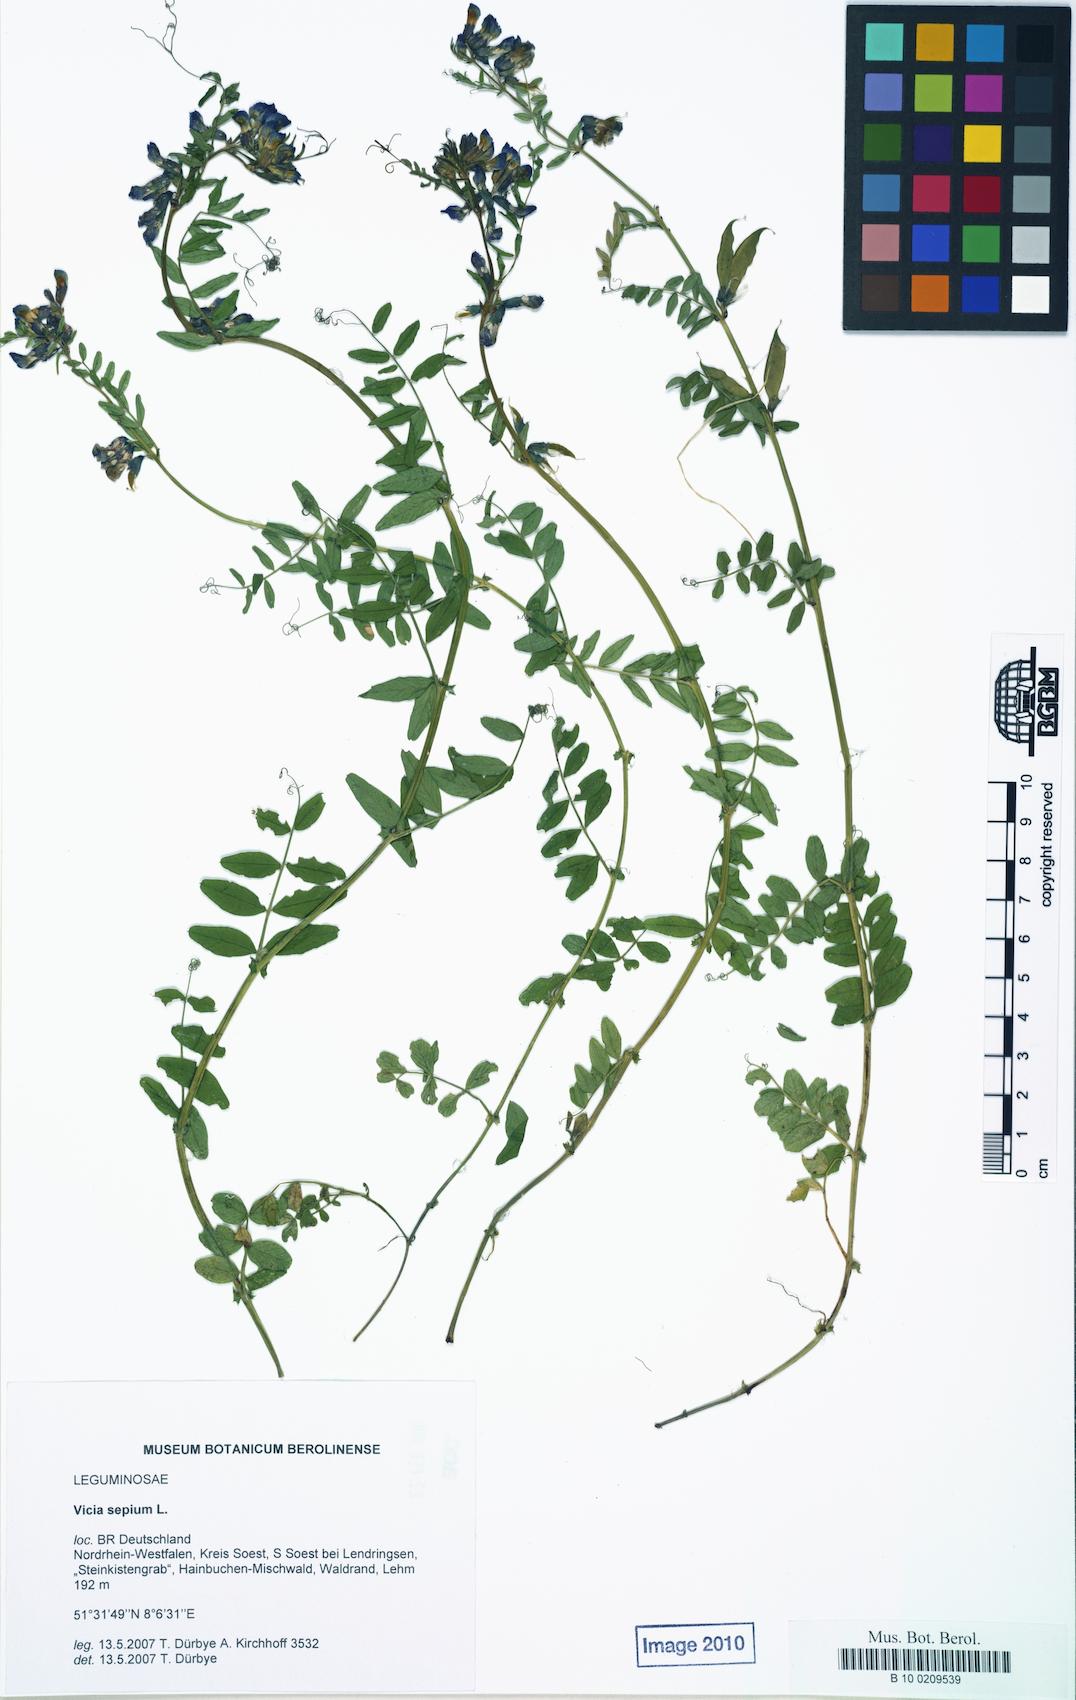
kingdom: Plantae
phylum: Tracheophyta
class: Magnoliopsida
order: Fabales
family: Fabaceae
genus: Vicia
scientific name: Vicia sepium
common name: Bush vetch
